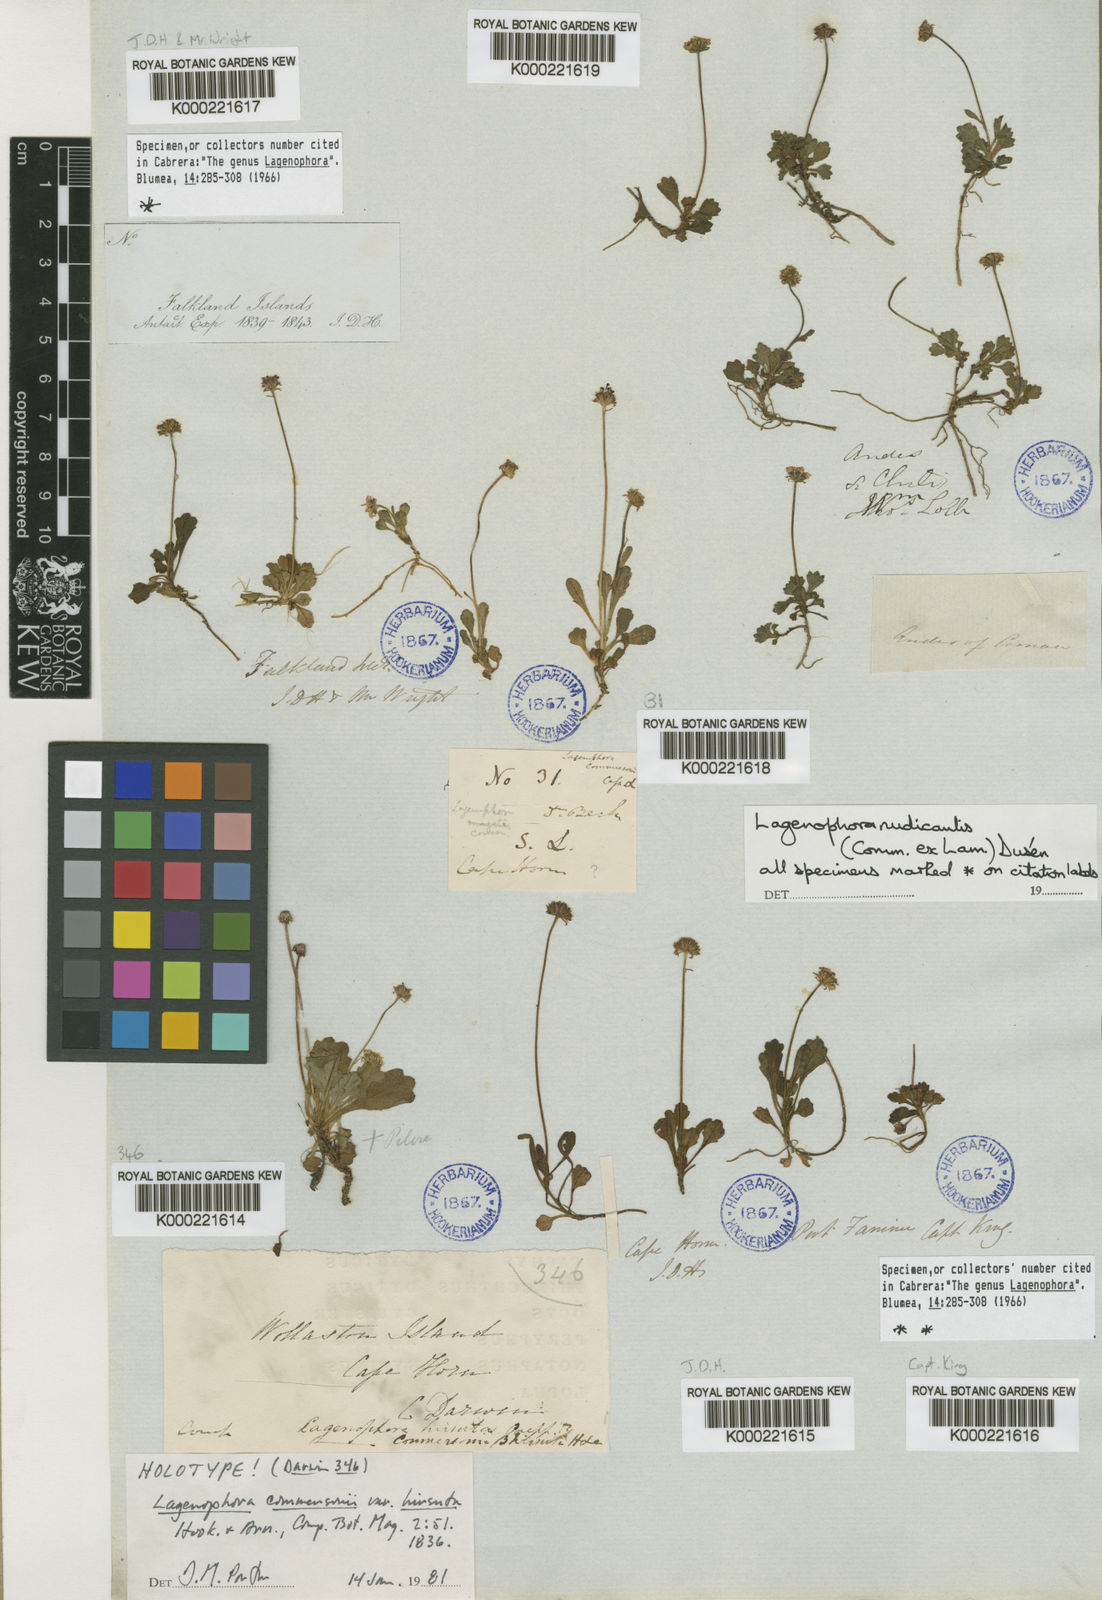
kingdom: Plantae
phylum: Tracheophyta
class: Magnoliopsida
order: Asterales
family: Asteraceae
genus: Lagenophora
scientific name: Lagenophora
